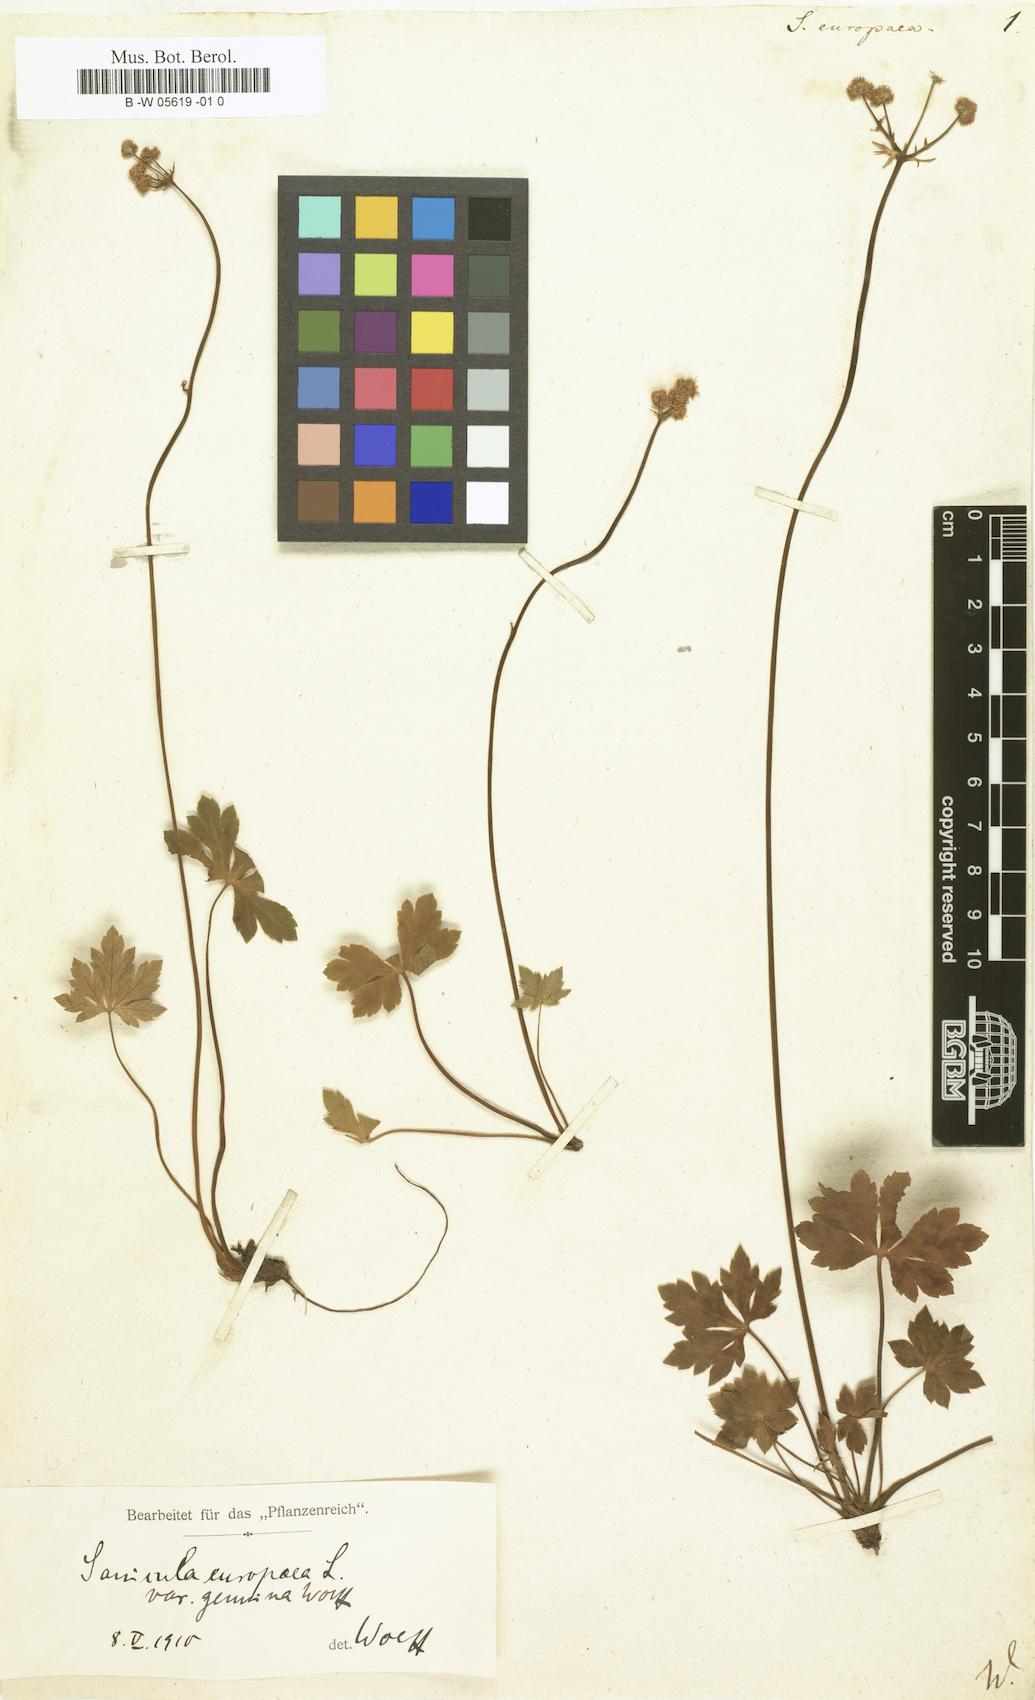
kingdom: Plantae
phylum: Tracheophyta
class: Magnoliopsida
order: Apiales
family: Apiaceae
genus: Sanicula
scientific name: Sanicula europaea
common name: Sanicle
